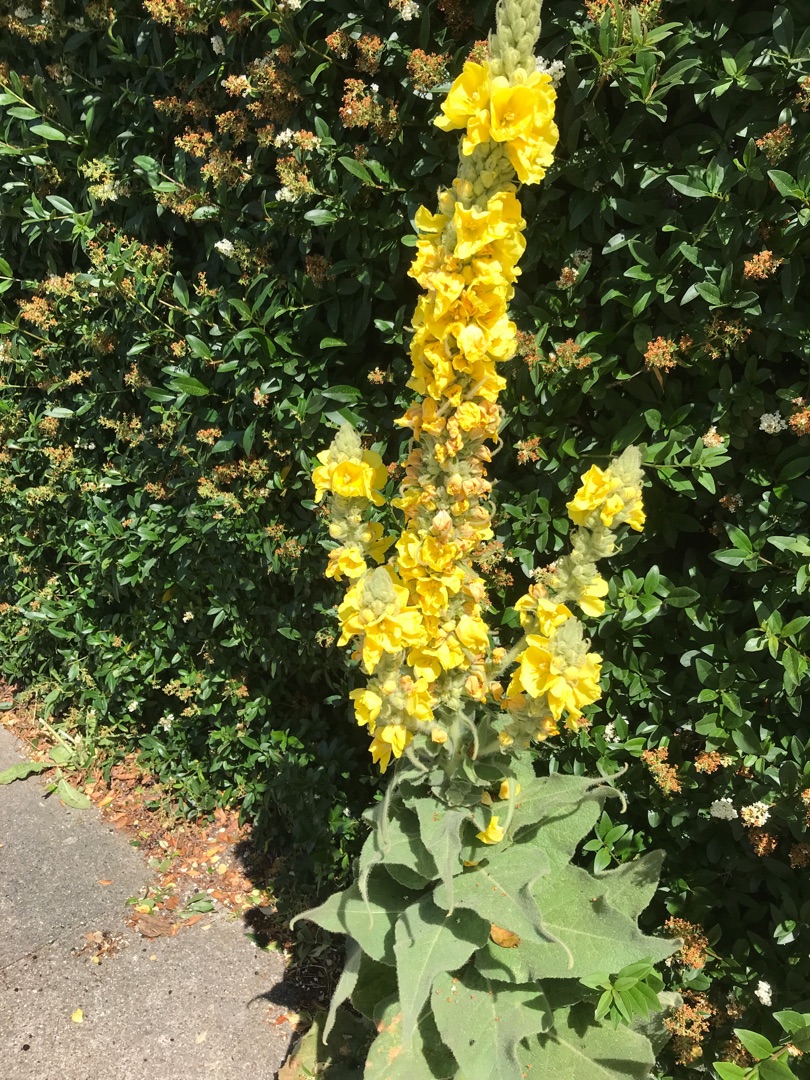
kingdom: Plantae
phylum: Tracheophyta
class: Magnoliopsida
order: Lamiales
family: Scrophulariaceae
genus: Verbascum
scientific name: Verbascum densiflorum
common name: Uldbladet kongelys
